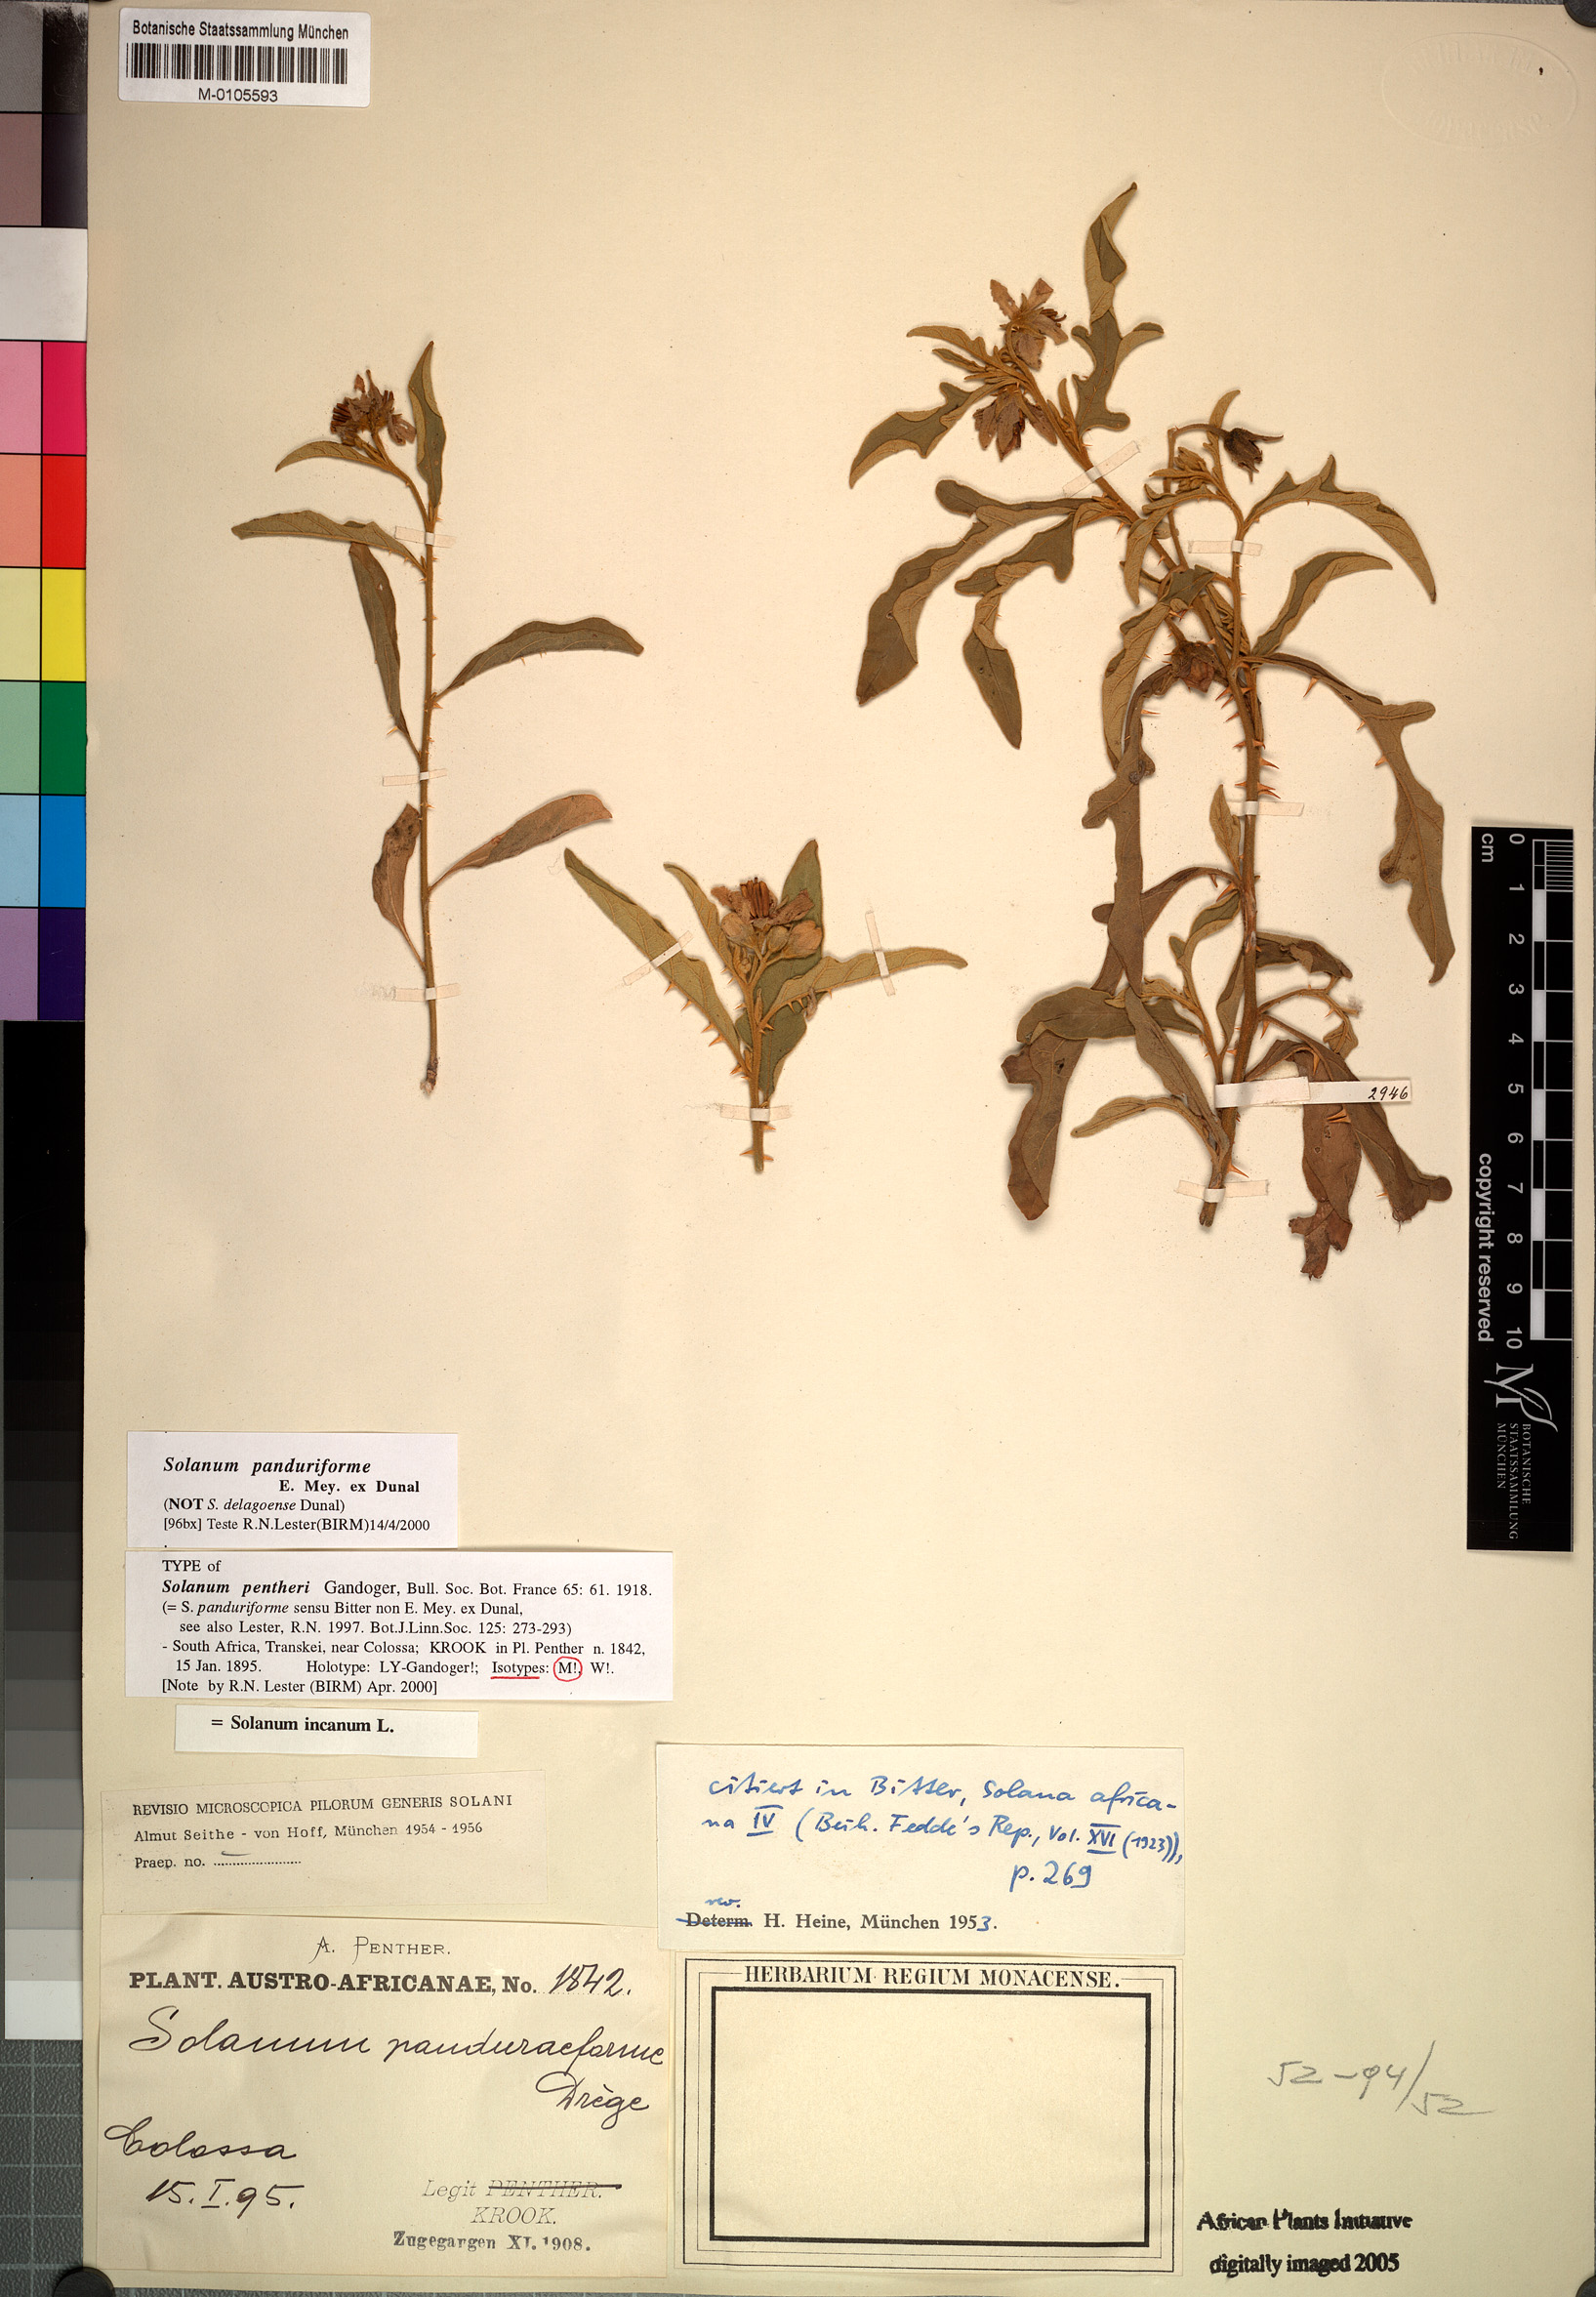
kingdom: Plantae
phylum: Tracheophyta
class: Magnoliopsida
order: Solanales
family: Solanaceae
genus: Solanum
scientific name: Solanum panduriforme
